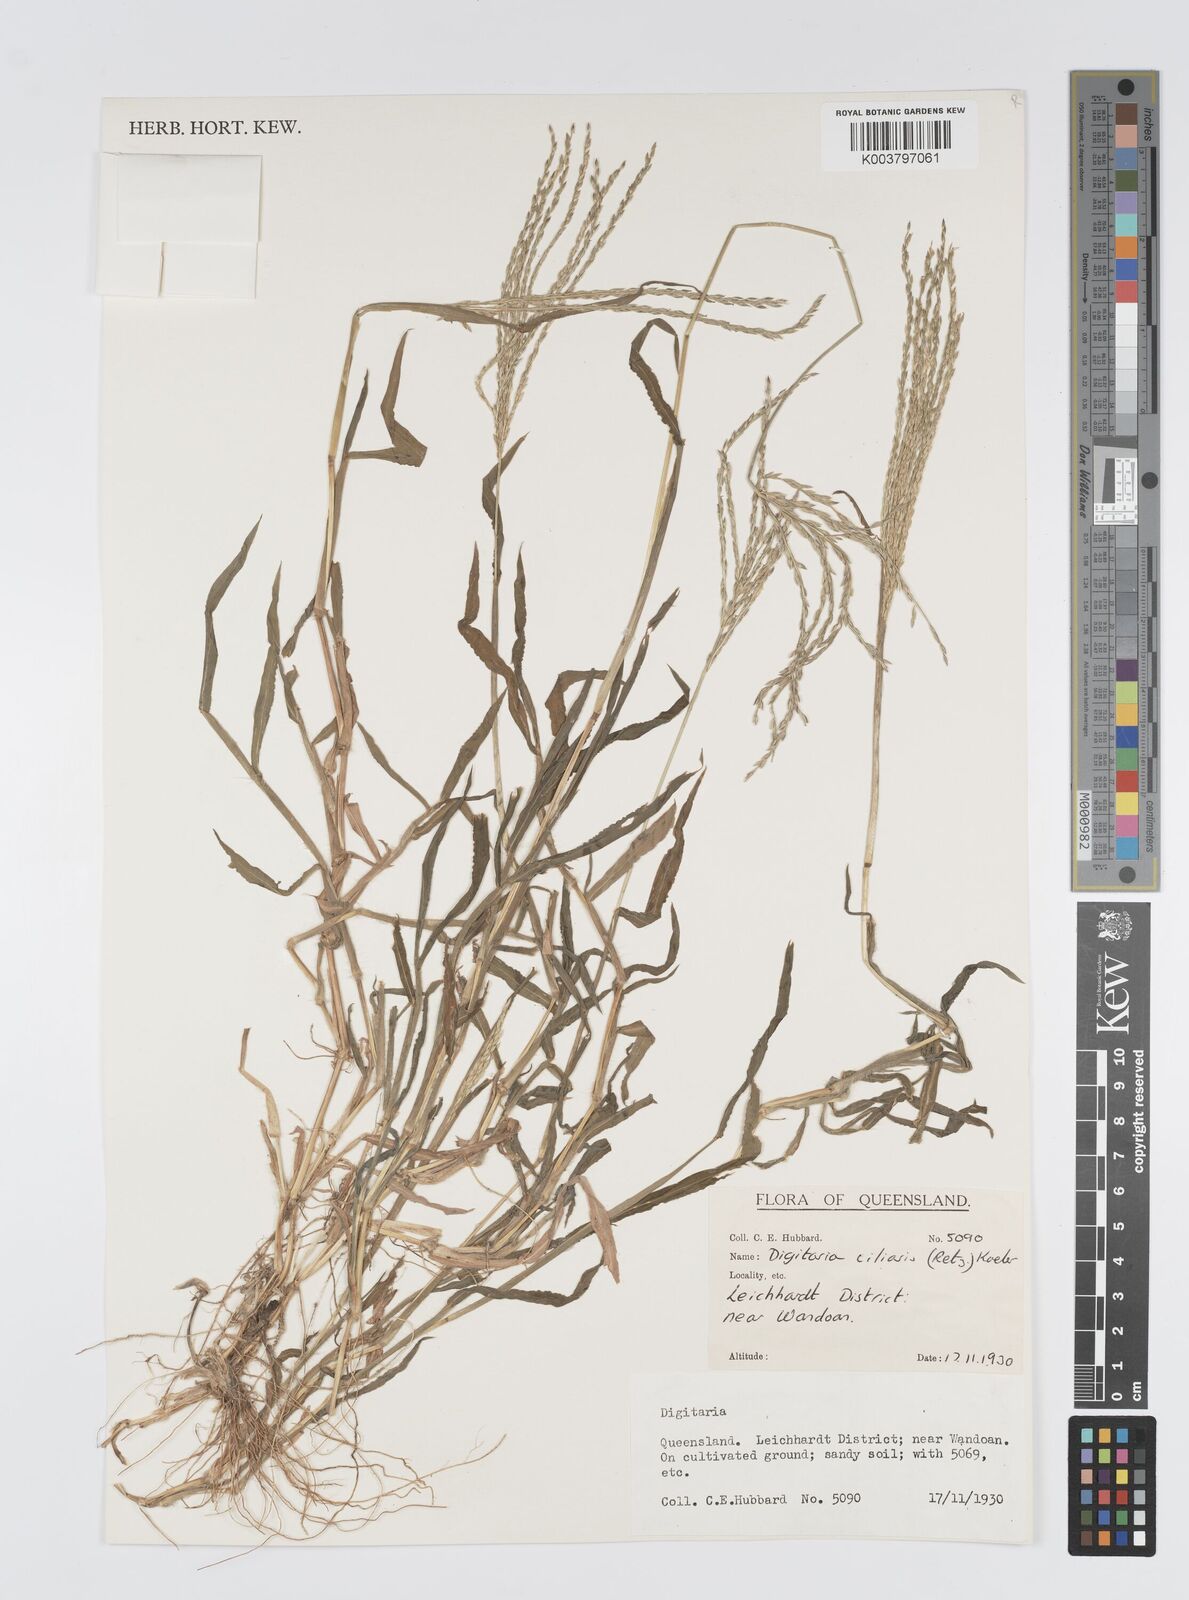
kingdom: Plantae
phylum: Tracheophyta
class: Liliopsida
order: Poales
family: Poaceae
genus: Digitaria
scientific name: Digitaria ciliaris
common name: Tropical finger-grass
